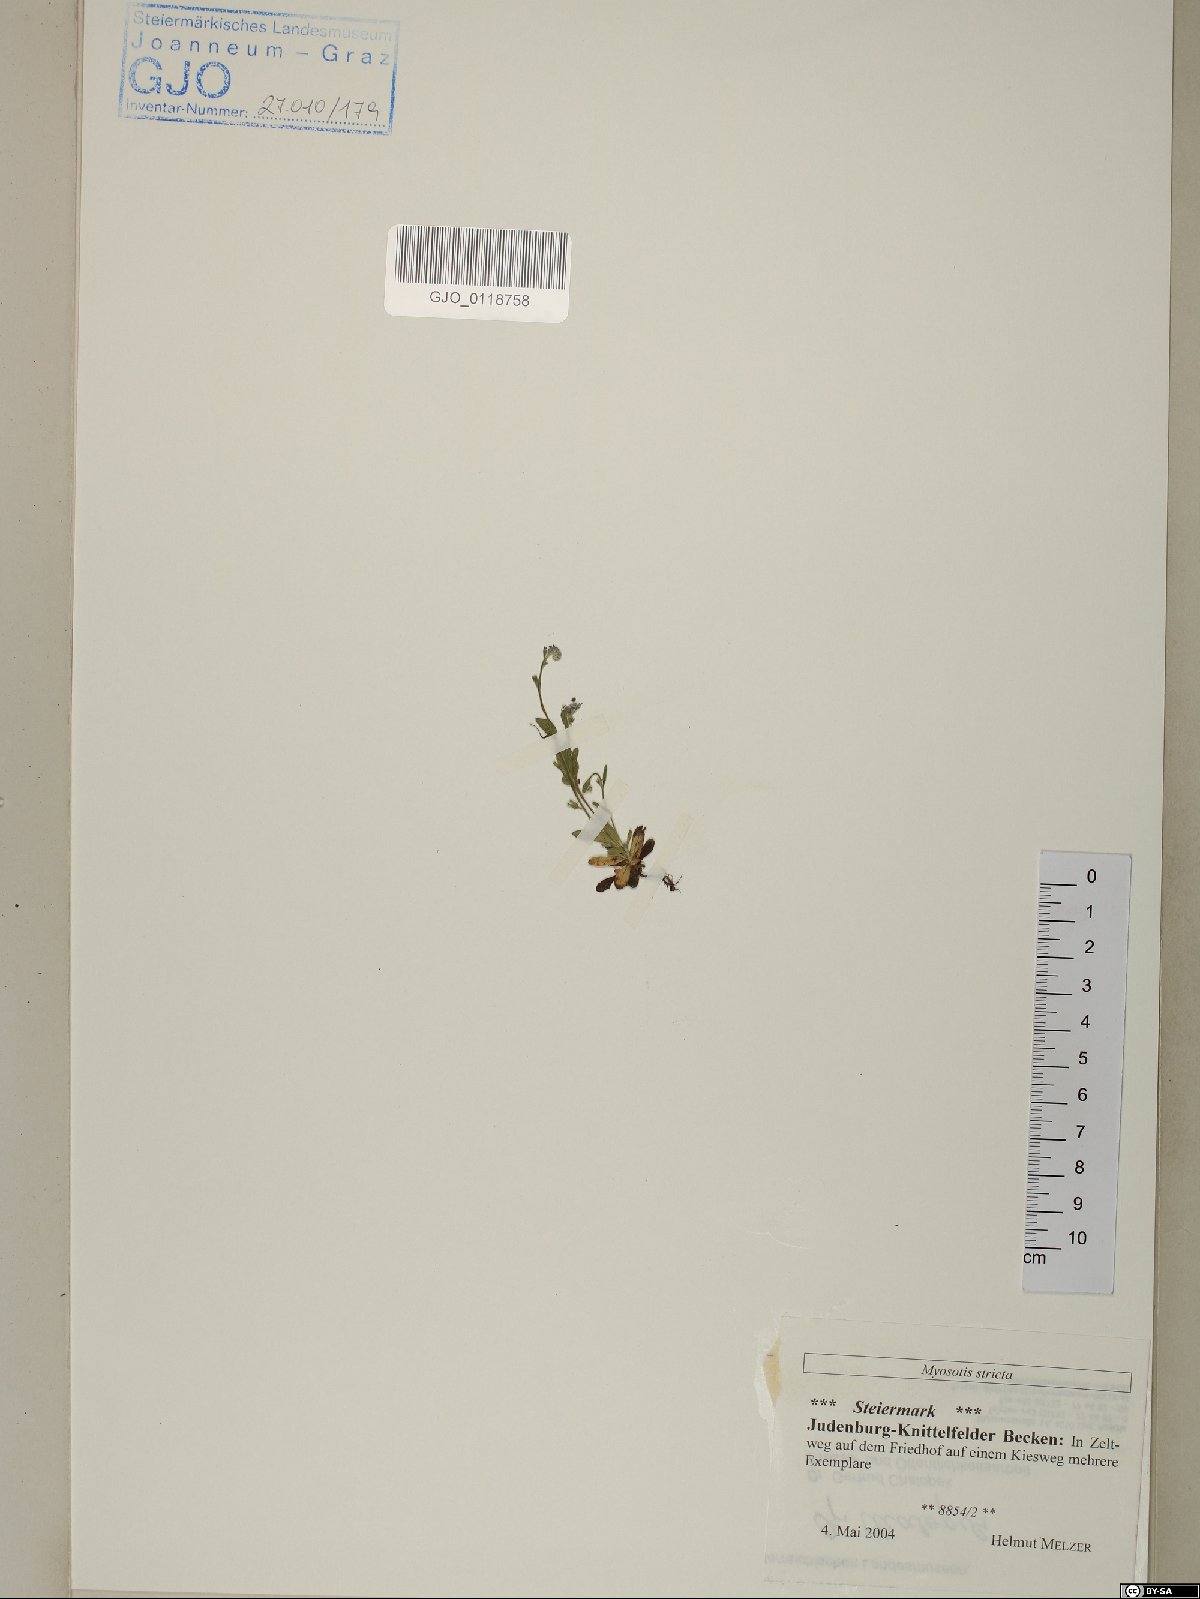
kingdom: Plantae
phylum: Tracheophyta
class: Magnoliopsida
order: Boraginales
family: Boraginaceae
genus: Myosotis
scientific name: Myosotis stricta
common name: Strict forget-me-not
